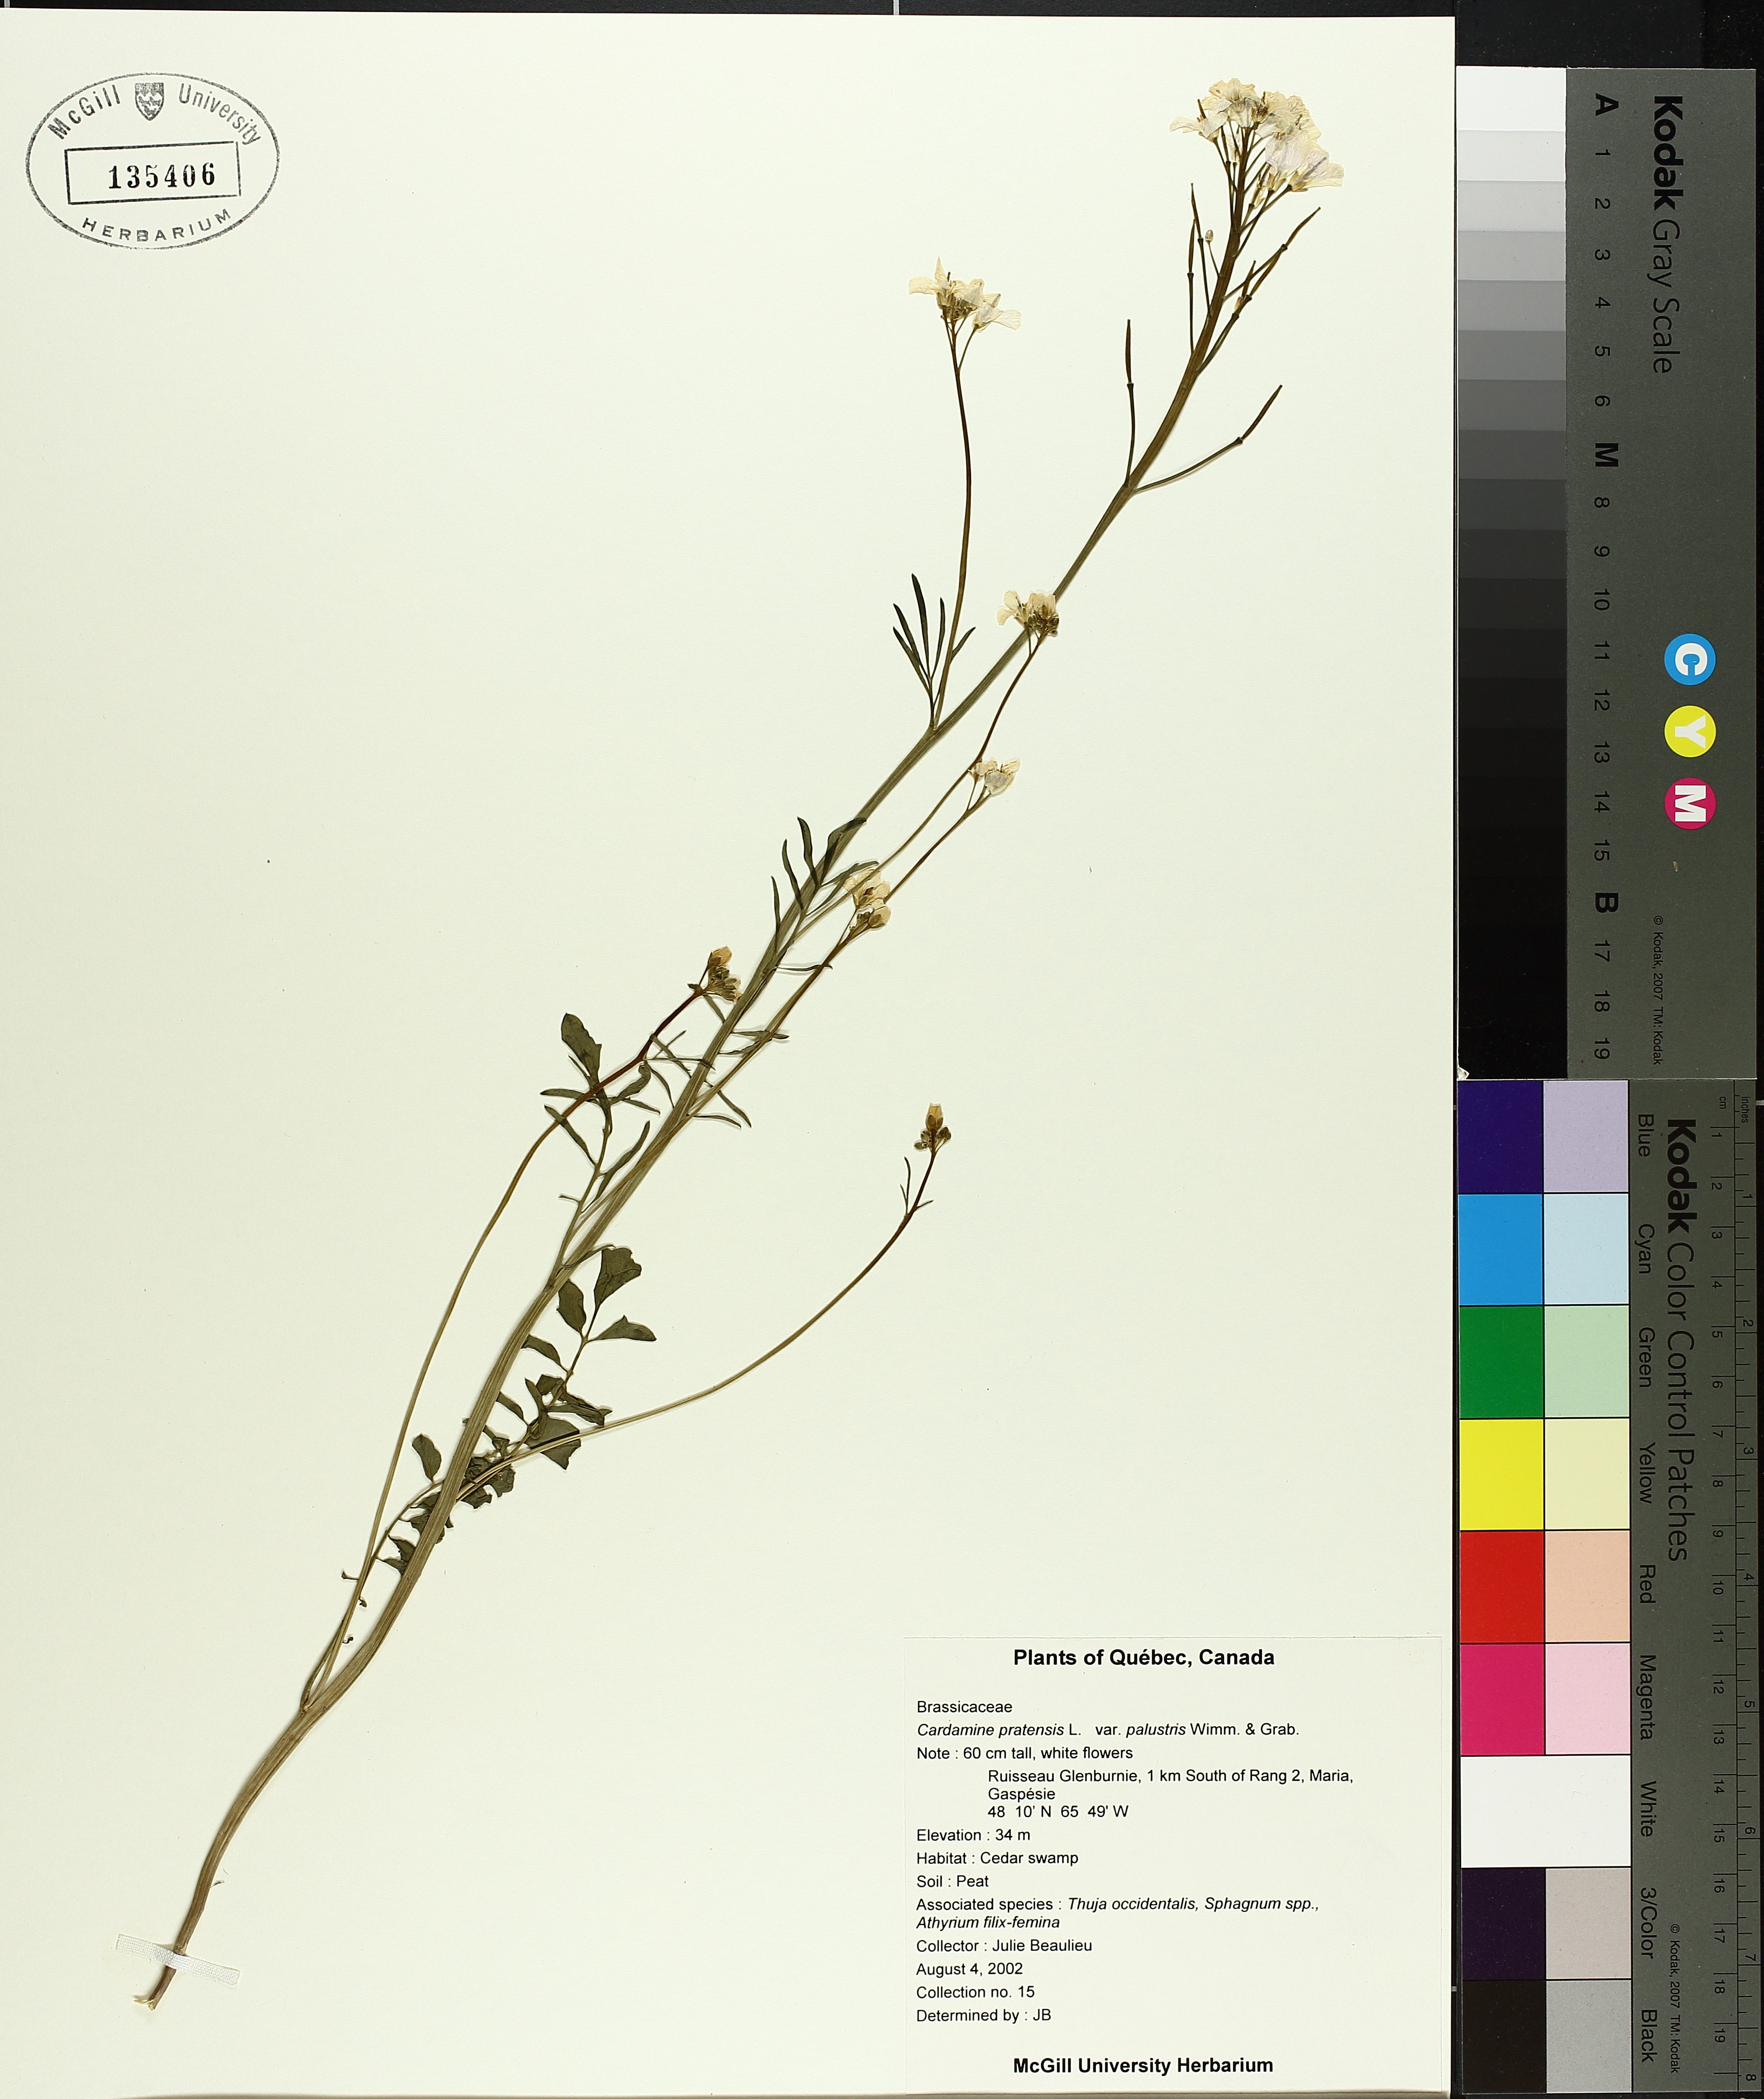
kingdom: Plantae
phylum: Tracheophyta
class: Liliopsida
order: Poales
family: Cyperaceae
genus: Carex
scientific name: Carex lurida
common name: Sallow sedge
